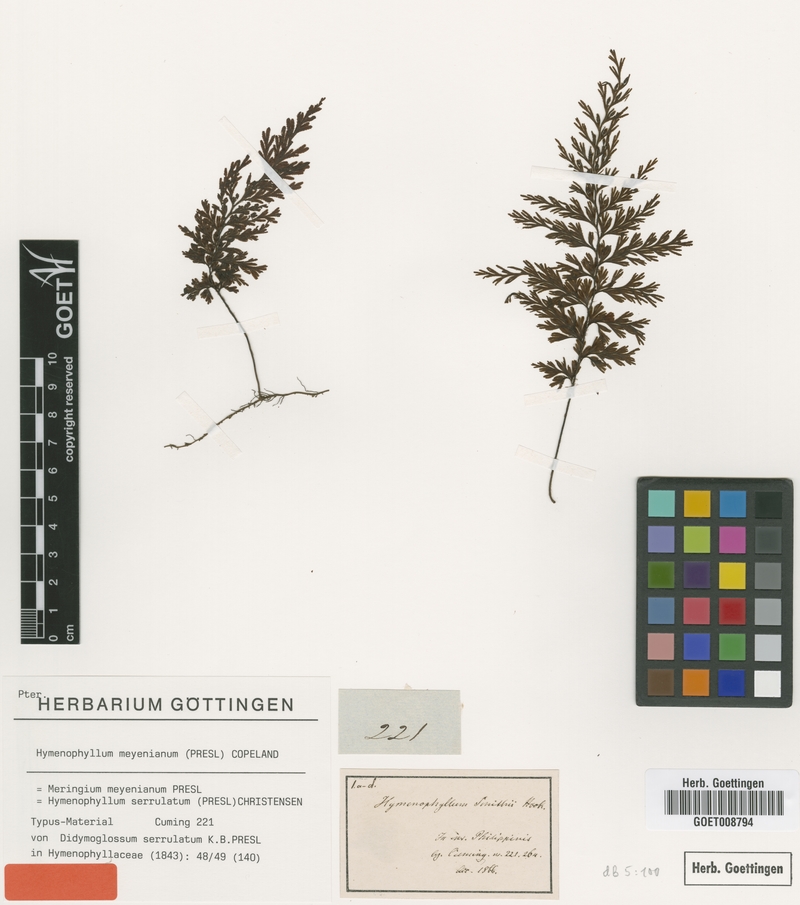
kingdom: Plantae
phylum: Tracheophyta
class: Polypodiopsida
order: Hymenophyllales
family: Hymenophyllaceae
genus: Hymenophyllum
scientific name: Hymenophyllum serrulatum
